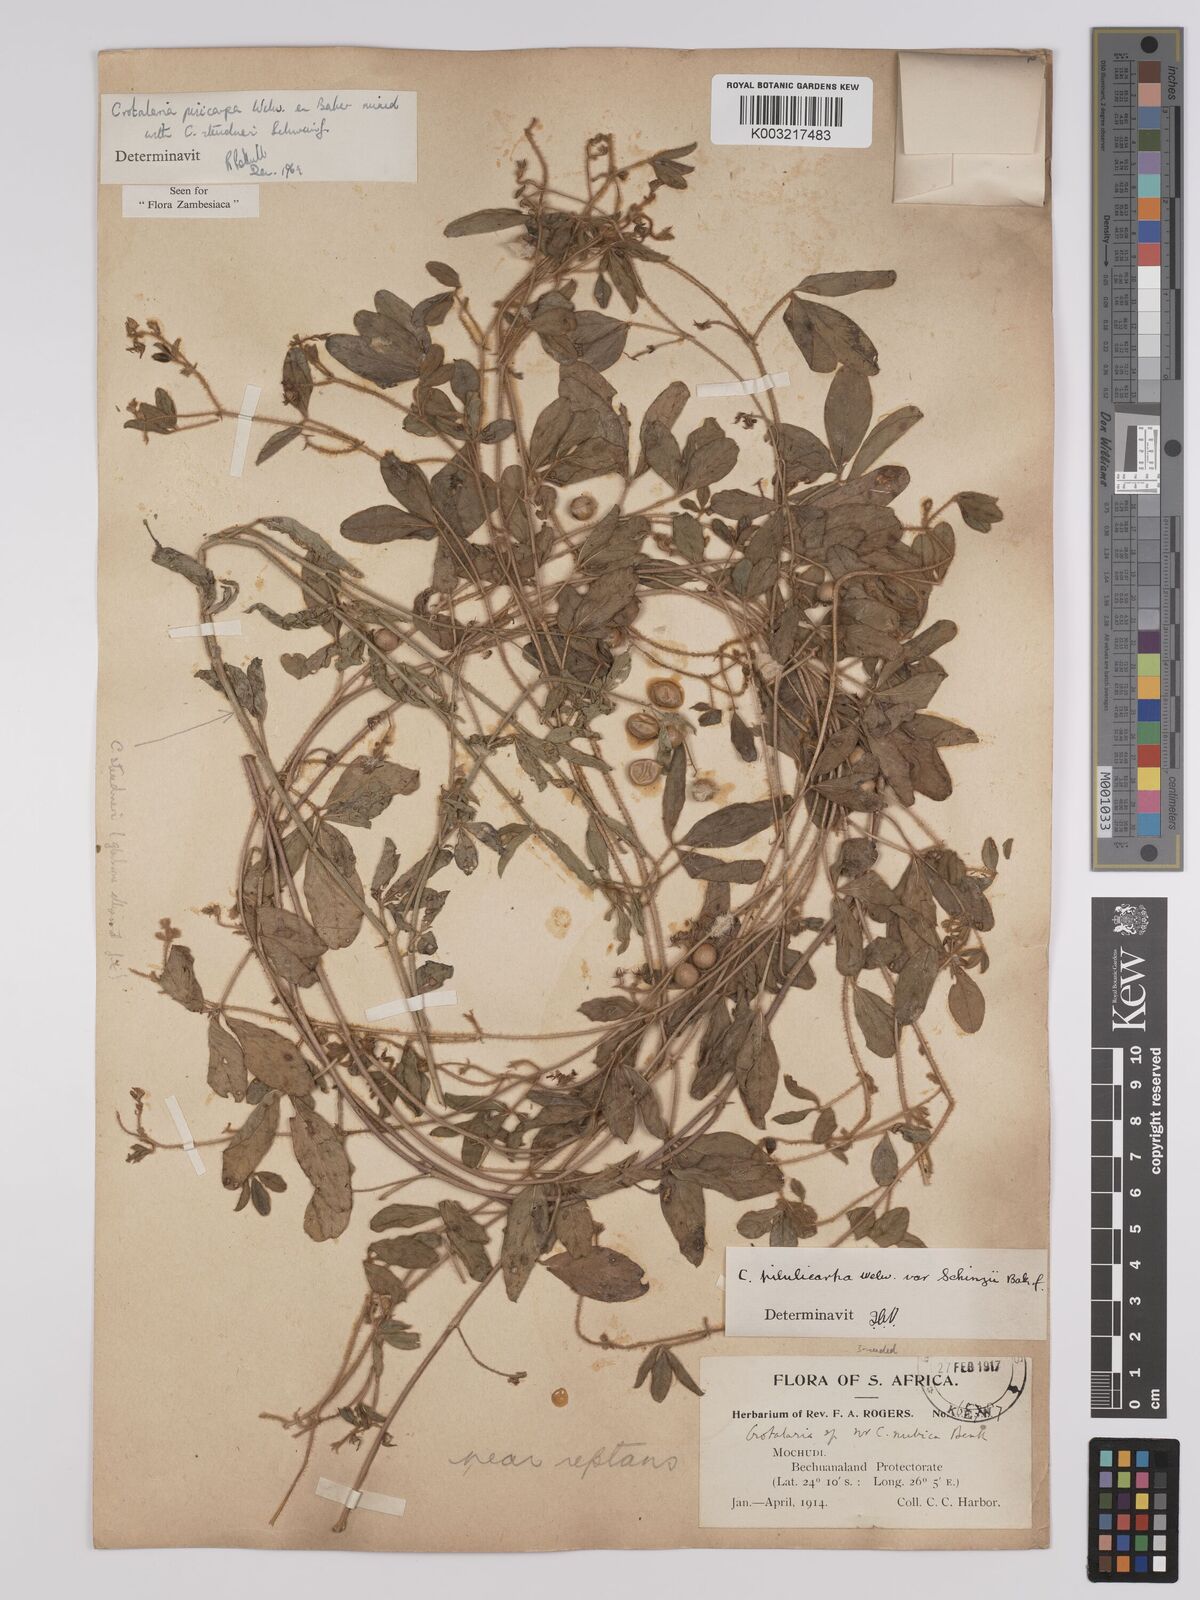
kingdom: Plantae
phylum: Tracheophyta
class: Magnoliopsida
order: Fabales
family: Fabaceae
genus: Crotalaria
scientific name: Crotalaria pisicarpa
